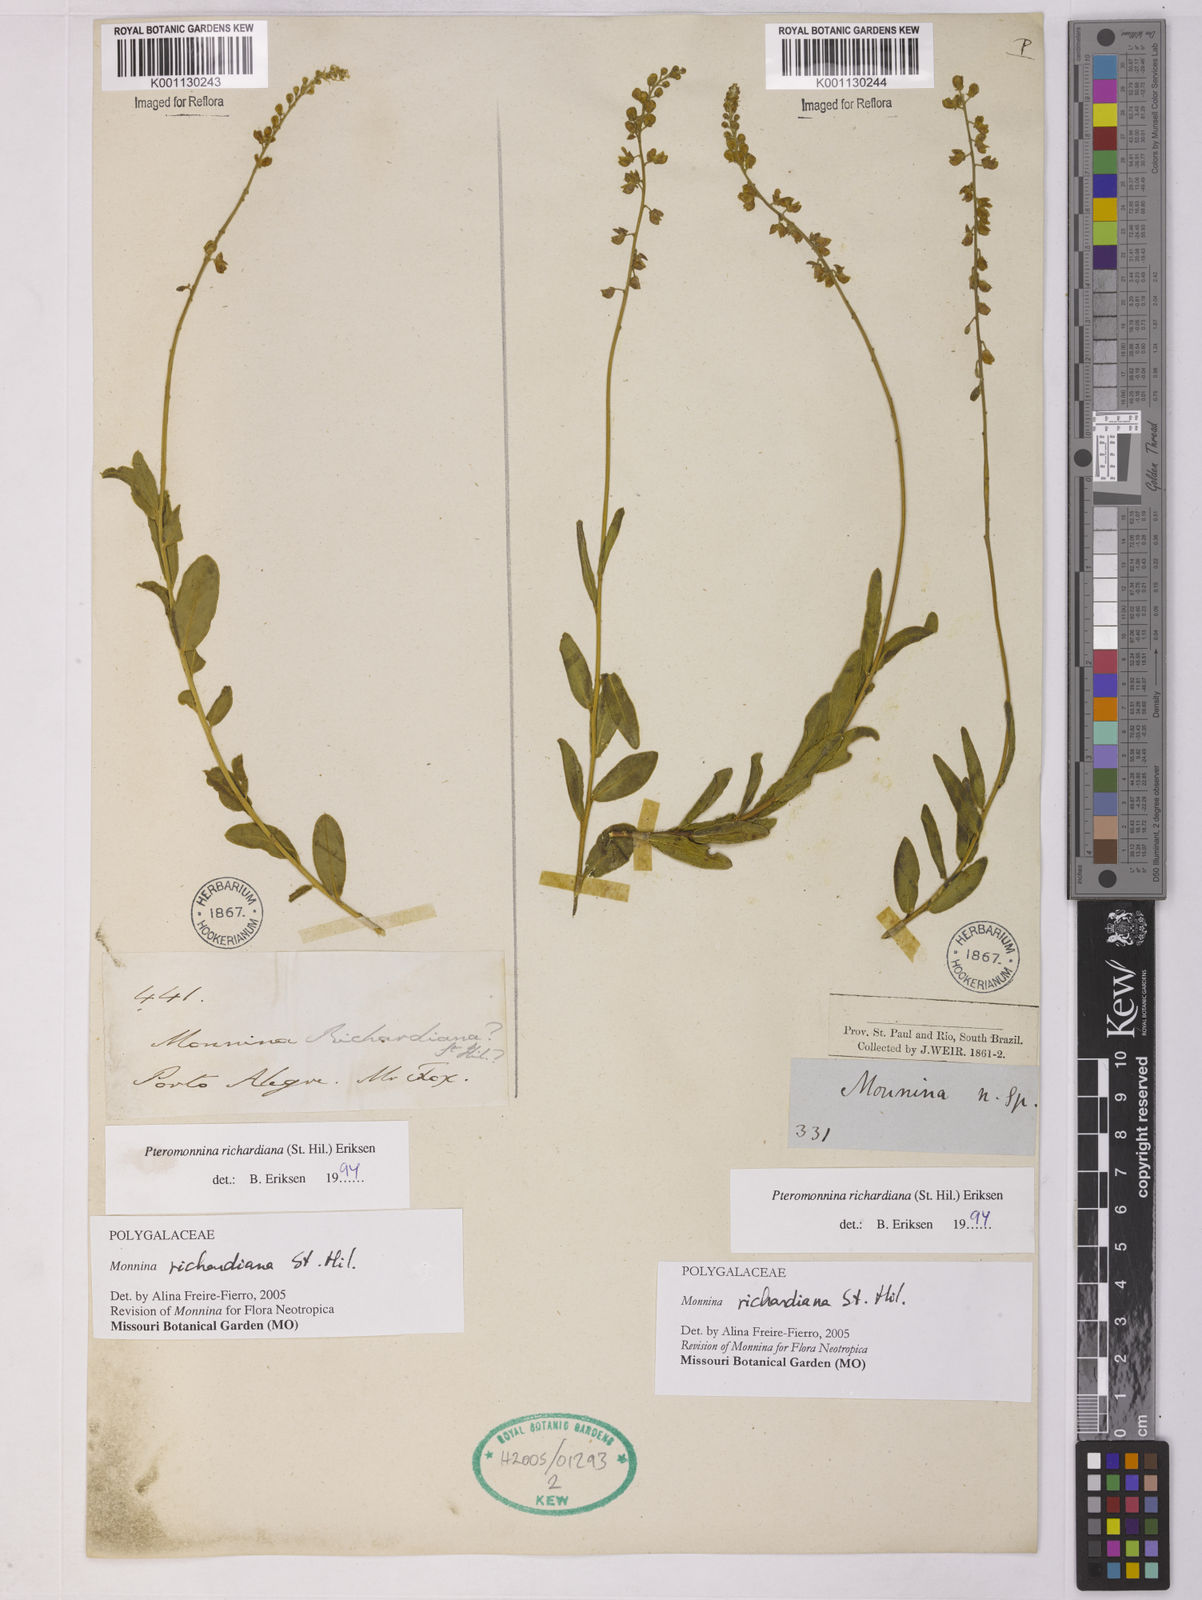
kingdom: Plantae
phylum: Tracheophyta
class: Magnoliopsida
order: Fabales
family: Polygalaceae
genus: Monnina
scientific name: Monnina richardiana
